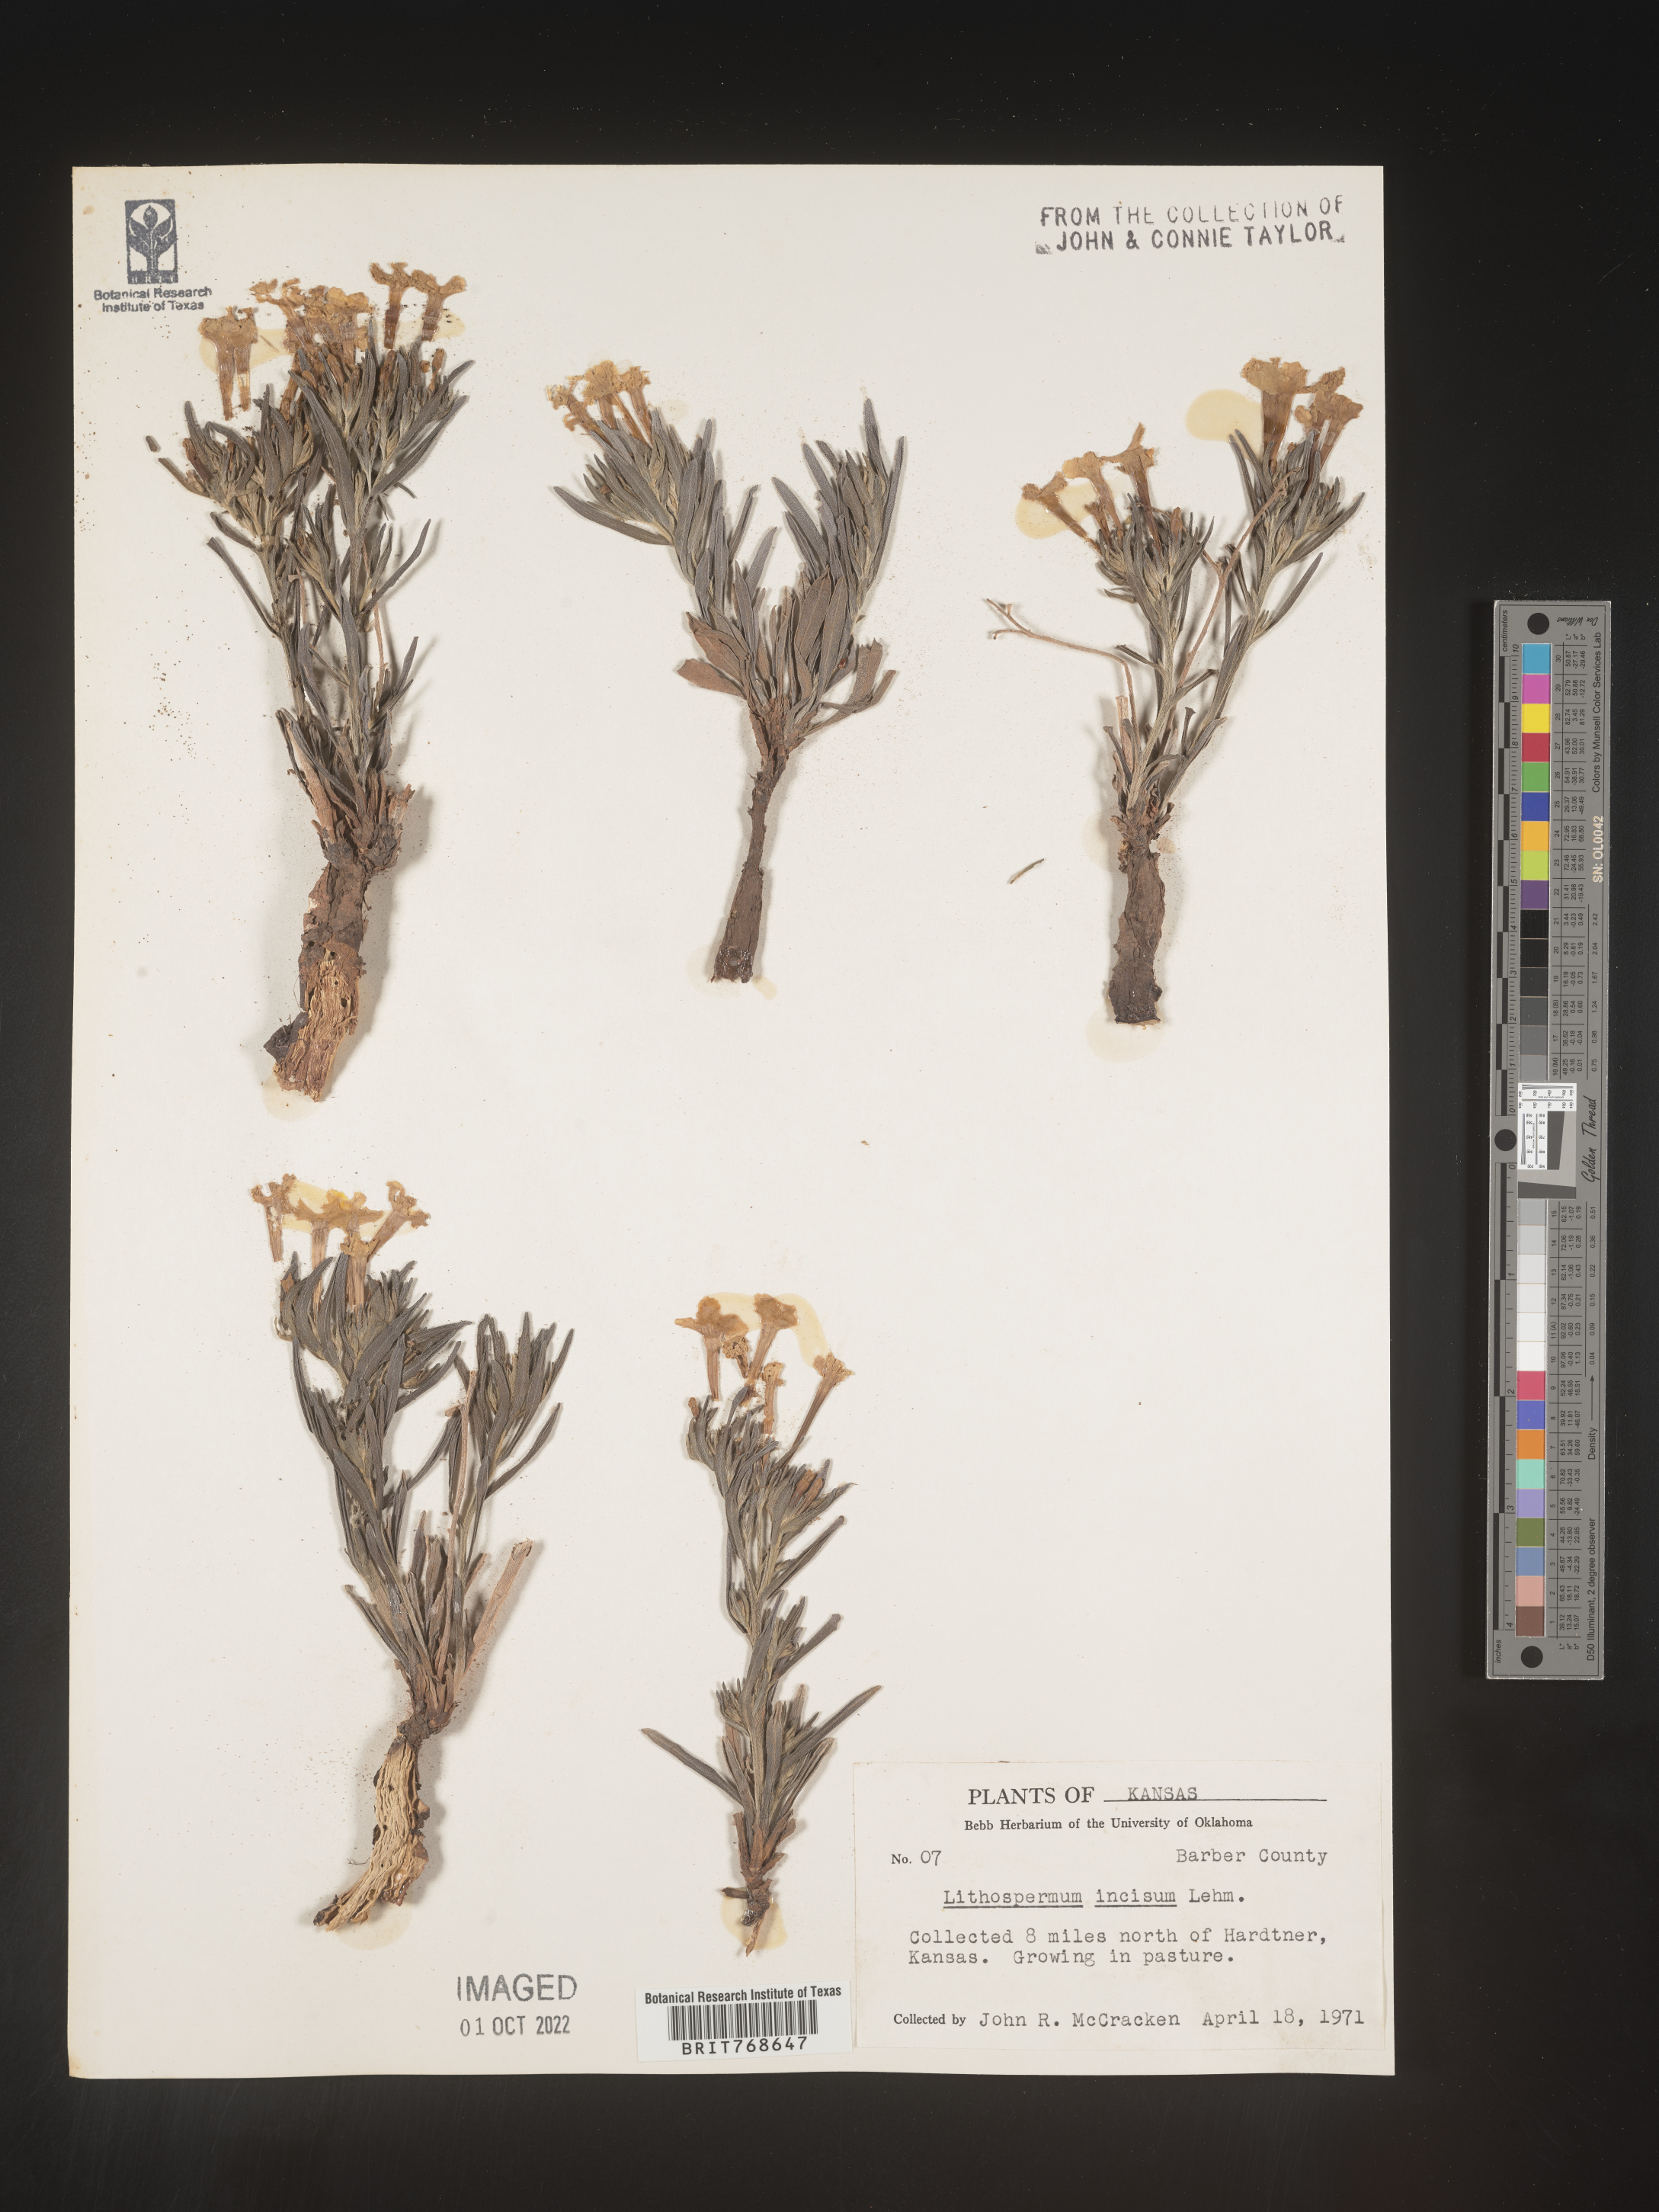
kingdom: Plantae
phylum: Tracheophyta
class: Magnoliopsida
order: Boraginales
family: Boraginaceae
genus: Lithospermum
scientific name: Lithospermum incisum
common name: Fringed gromwell
